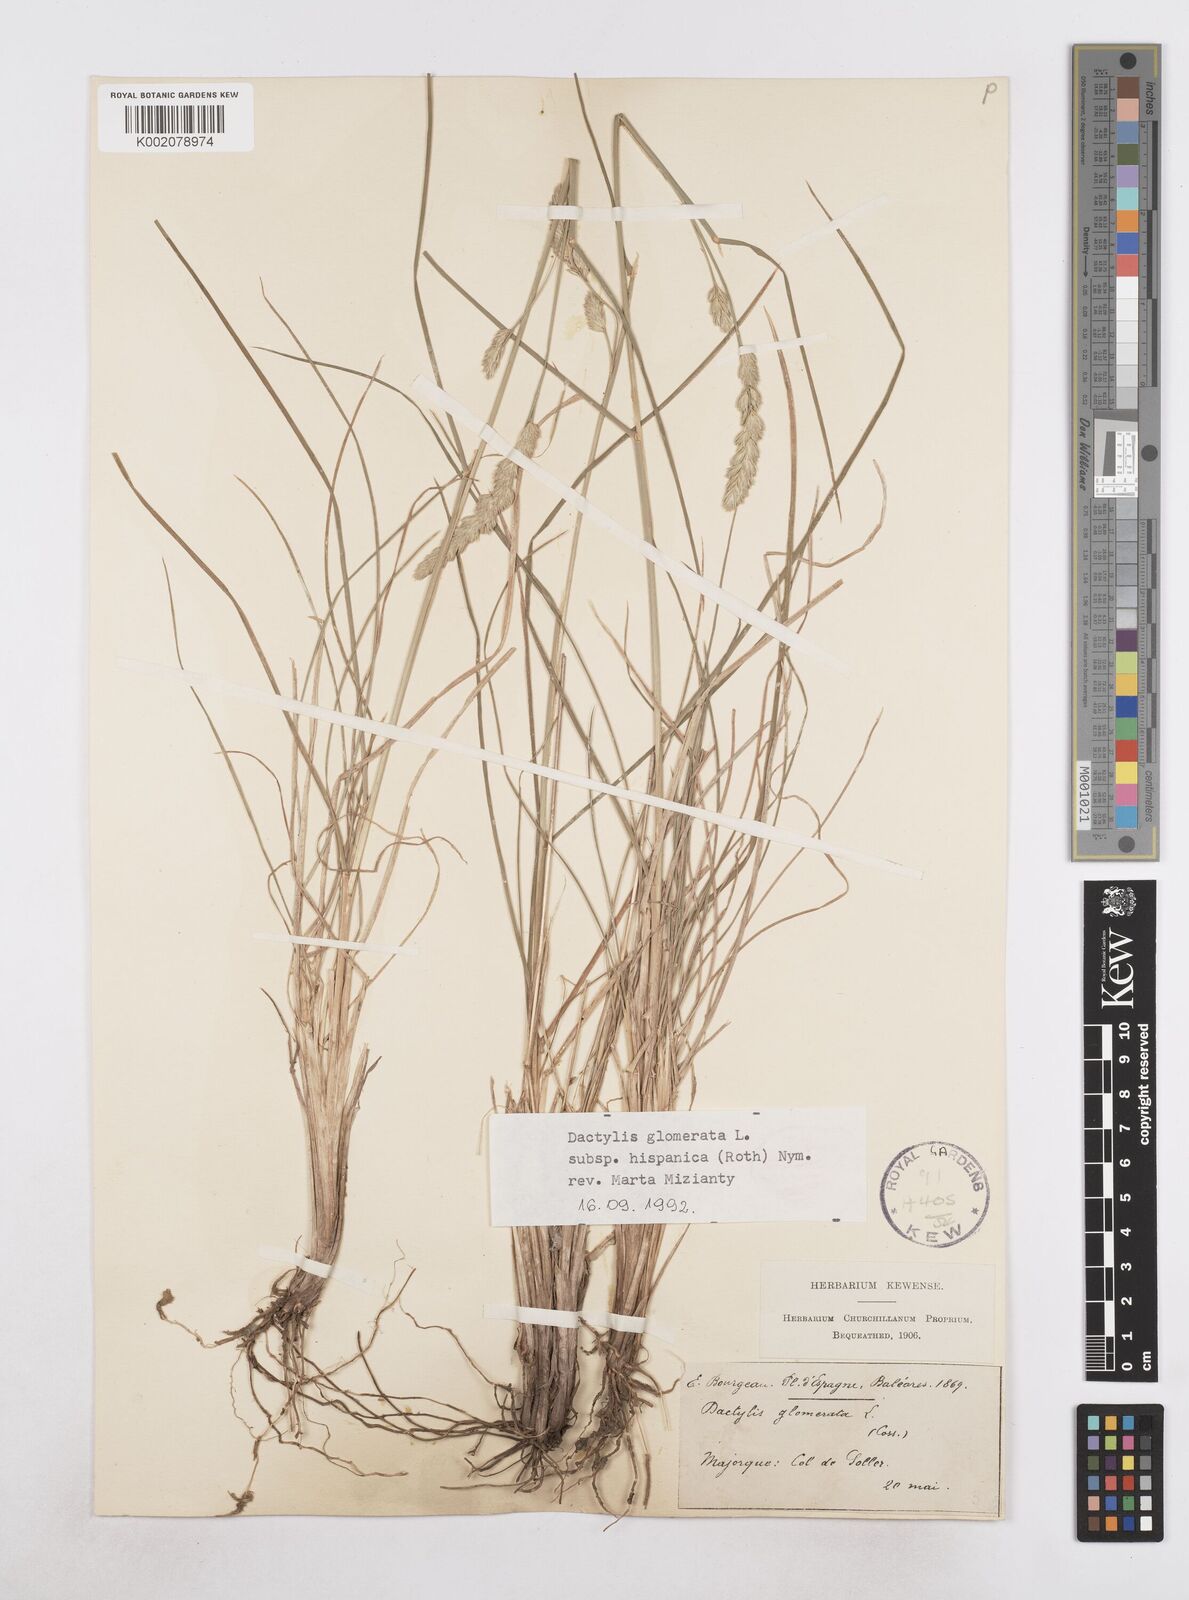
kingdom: Plantae
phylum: Tracheophyta
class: Liliopsida
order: Poales
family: Poaceae
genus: Dactylis
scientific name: Dactylis glomerata
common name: Orchardgrass
